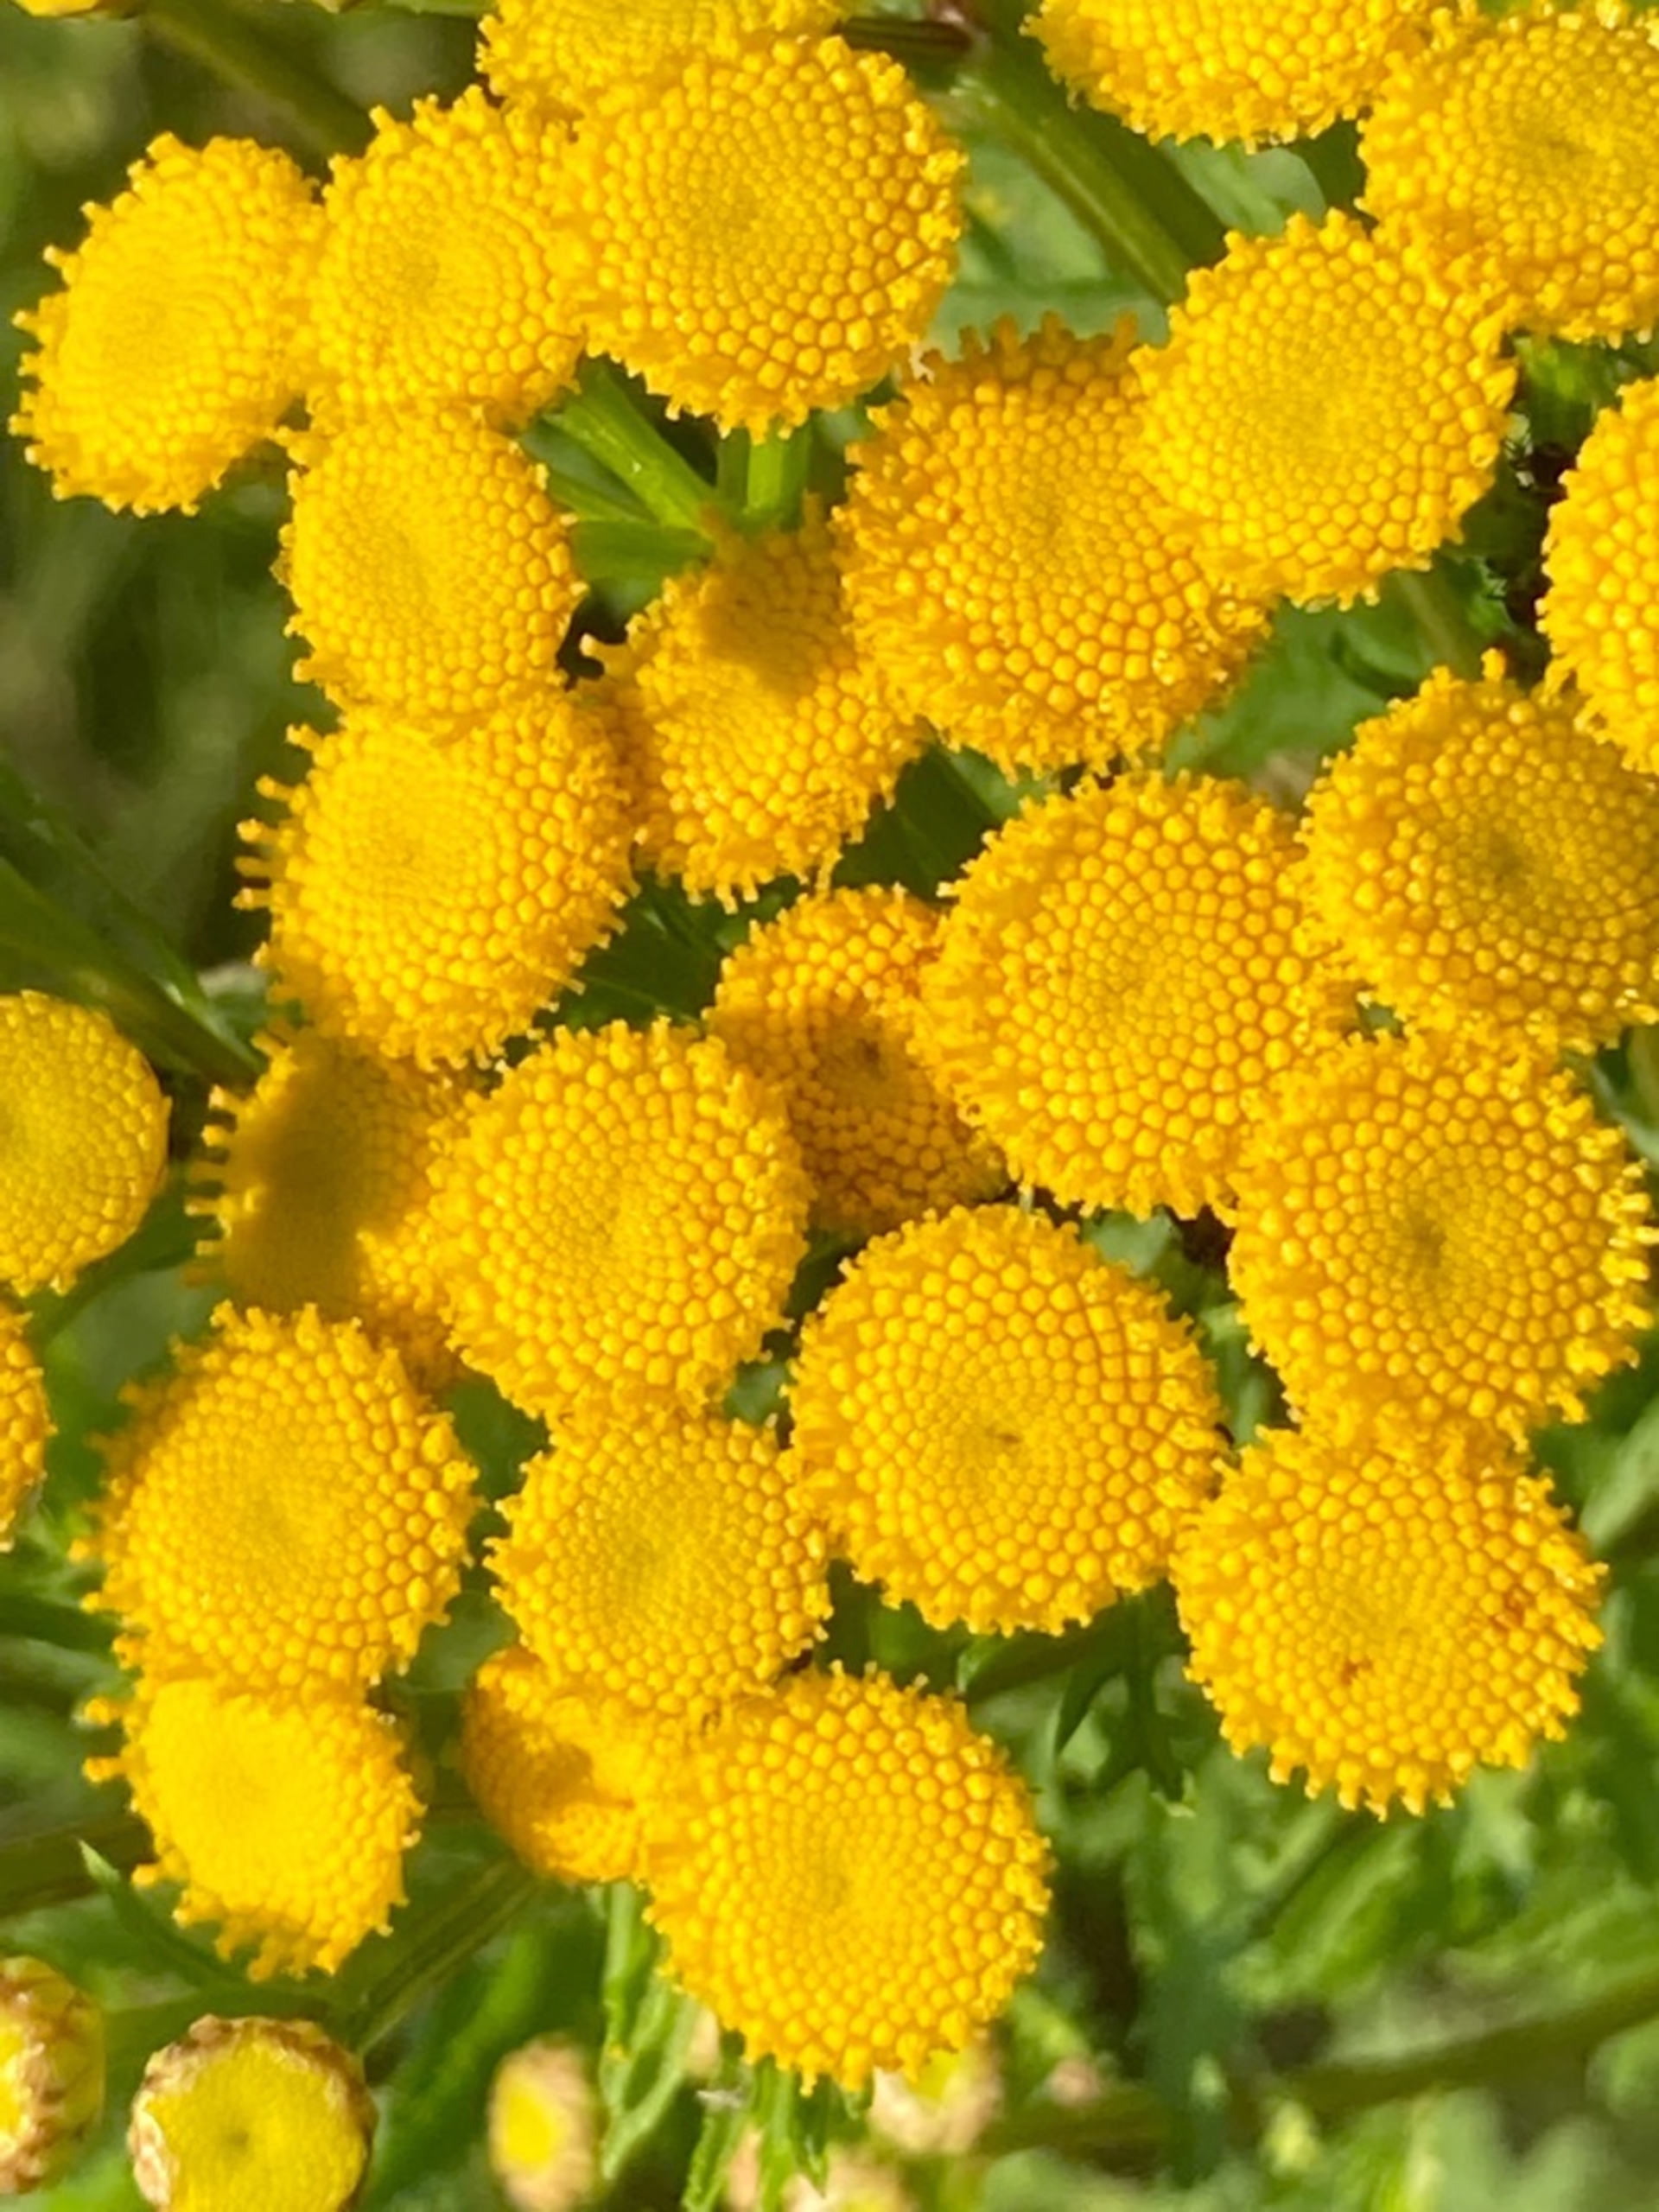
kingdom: Plantae
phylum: Tracheophyta
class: Magnoliopsida
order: Asterales
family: Asteraceae
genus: Tanacetum
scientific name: Tanacetum vulgare
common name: Rejnfan
